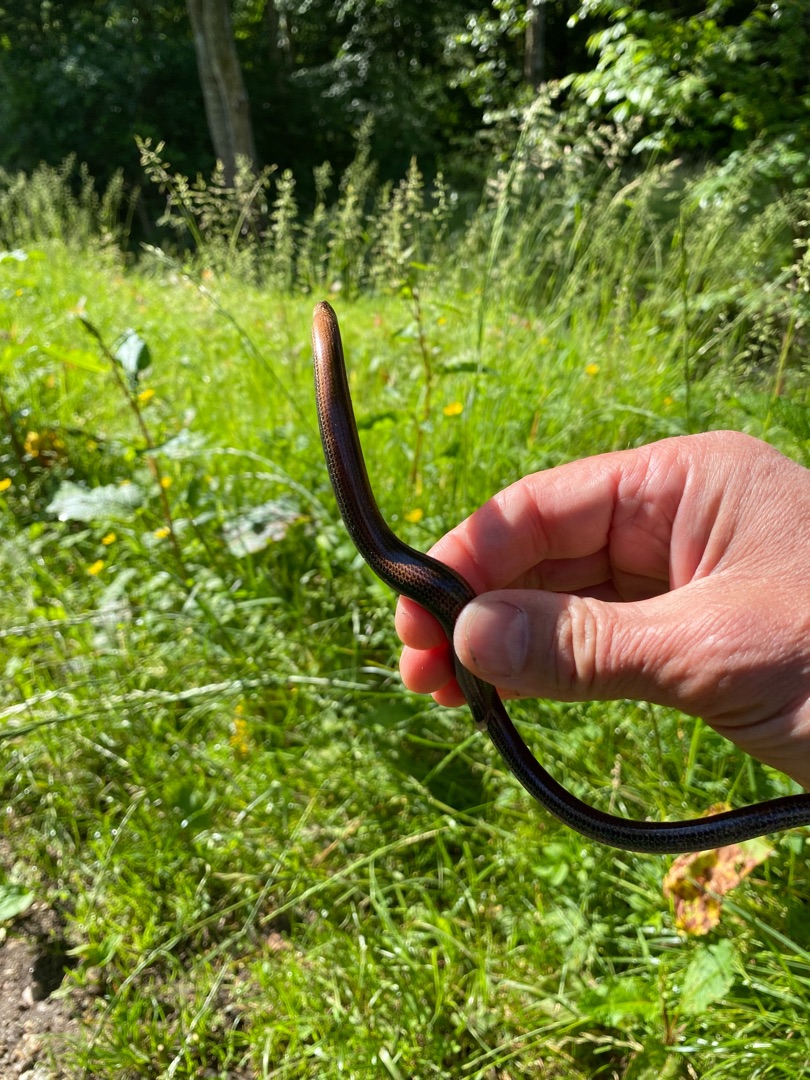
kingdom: Animalia
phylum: Chordata
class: Squamata
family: Anguidae
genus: Anguis
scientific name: Anguis fragilis
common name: Stålorm
